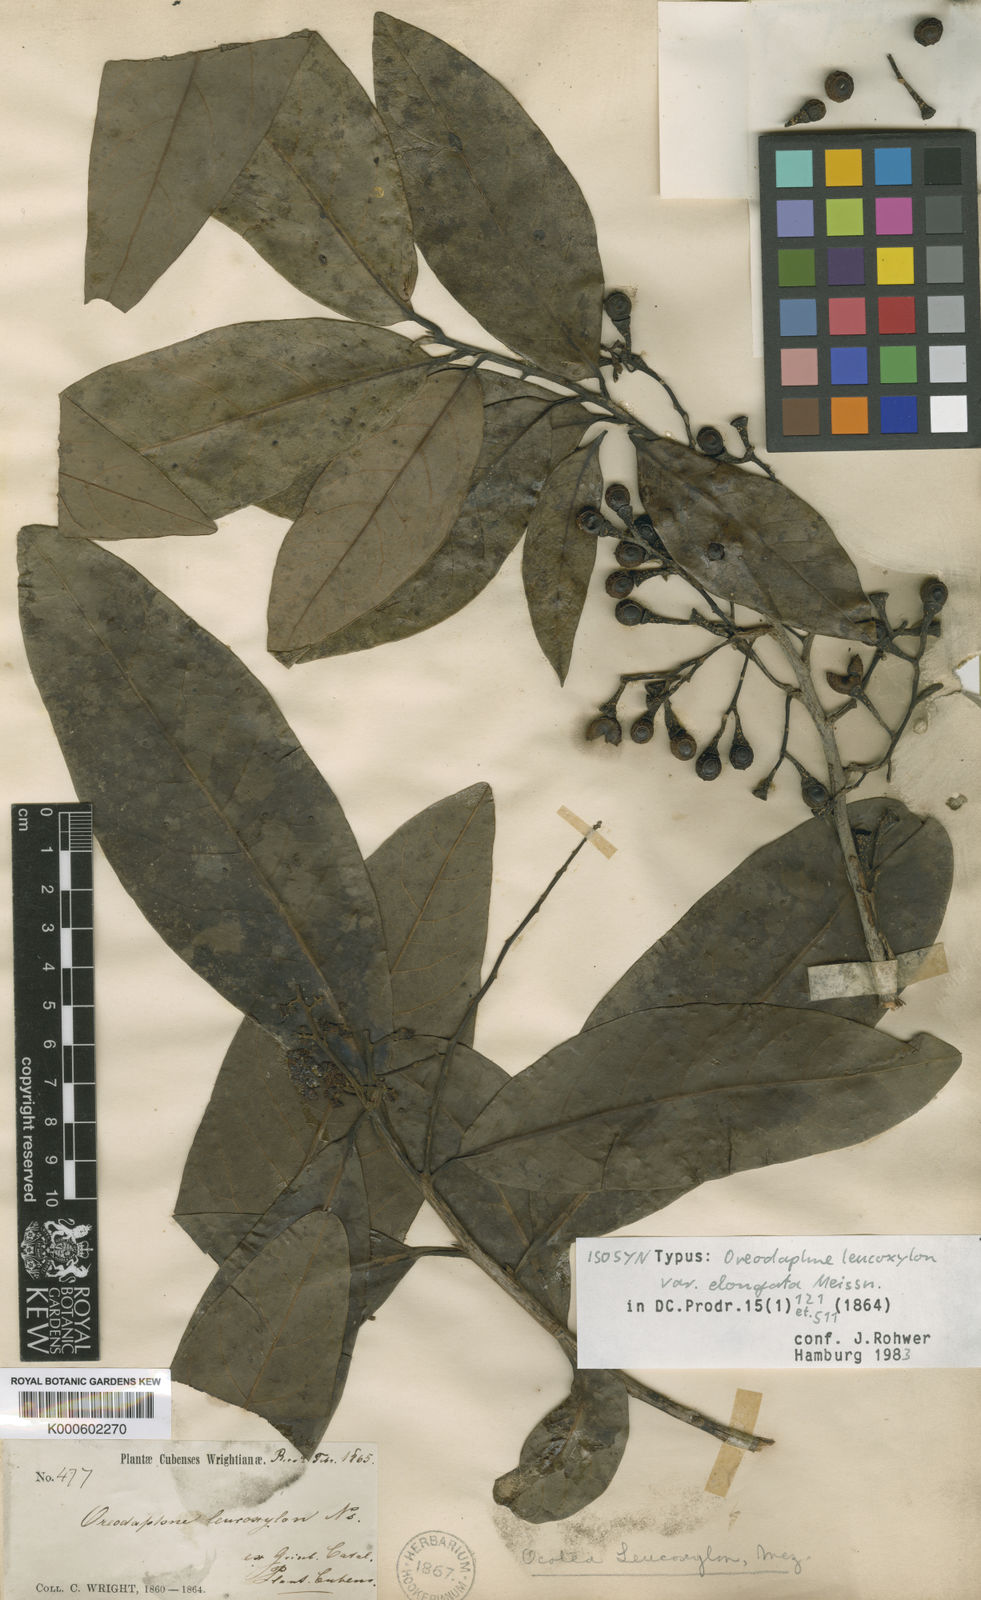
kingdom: Plantae
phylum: Tracheophyta
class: Magnoliopsida
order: Laurales
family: Lauraceae
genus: Ocotea
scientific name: Ocotea
